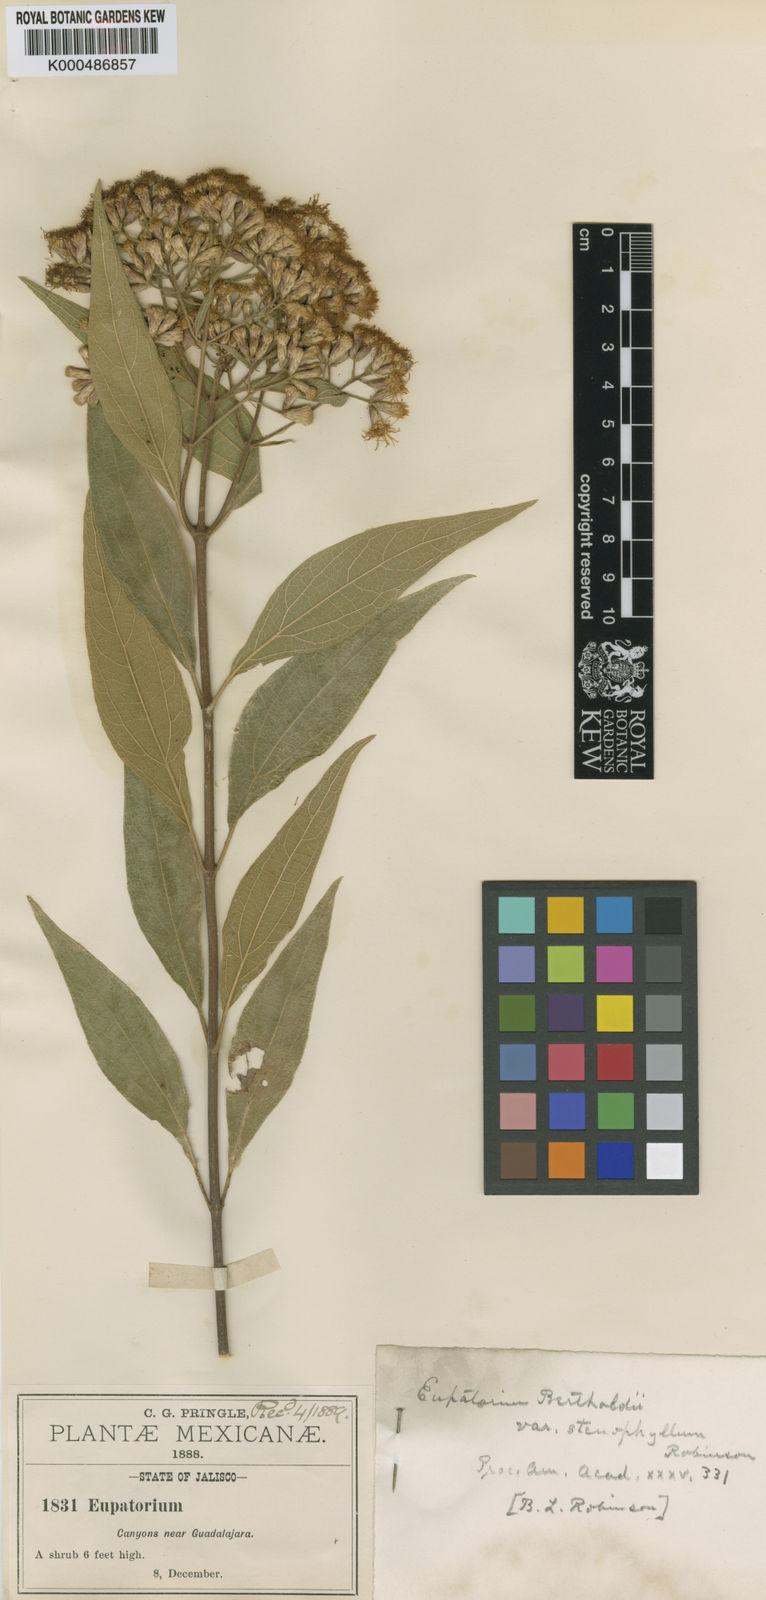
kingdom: Plantae
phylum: Tracheophyta
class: Magnoliopsida
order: Asterales
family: Asteraceae
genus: Chromolaena
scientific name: Chromolaena ovaliflora
